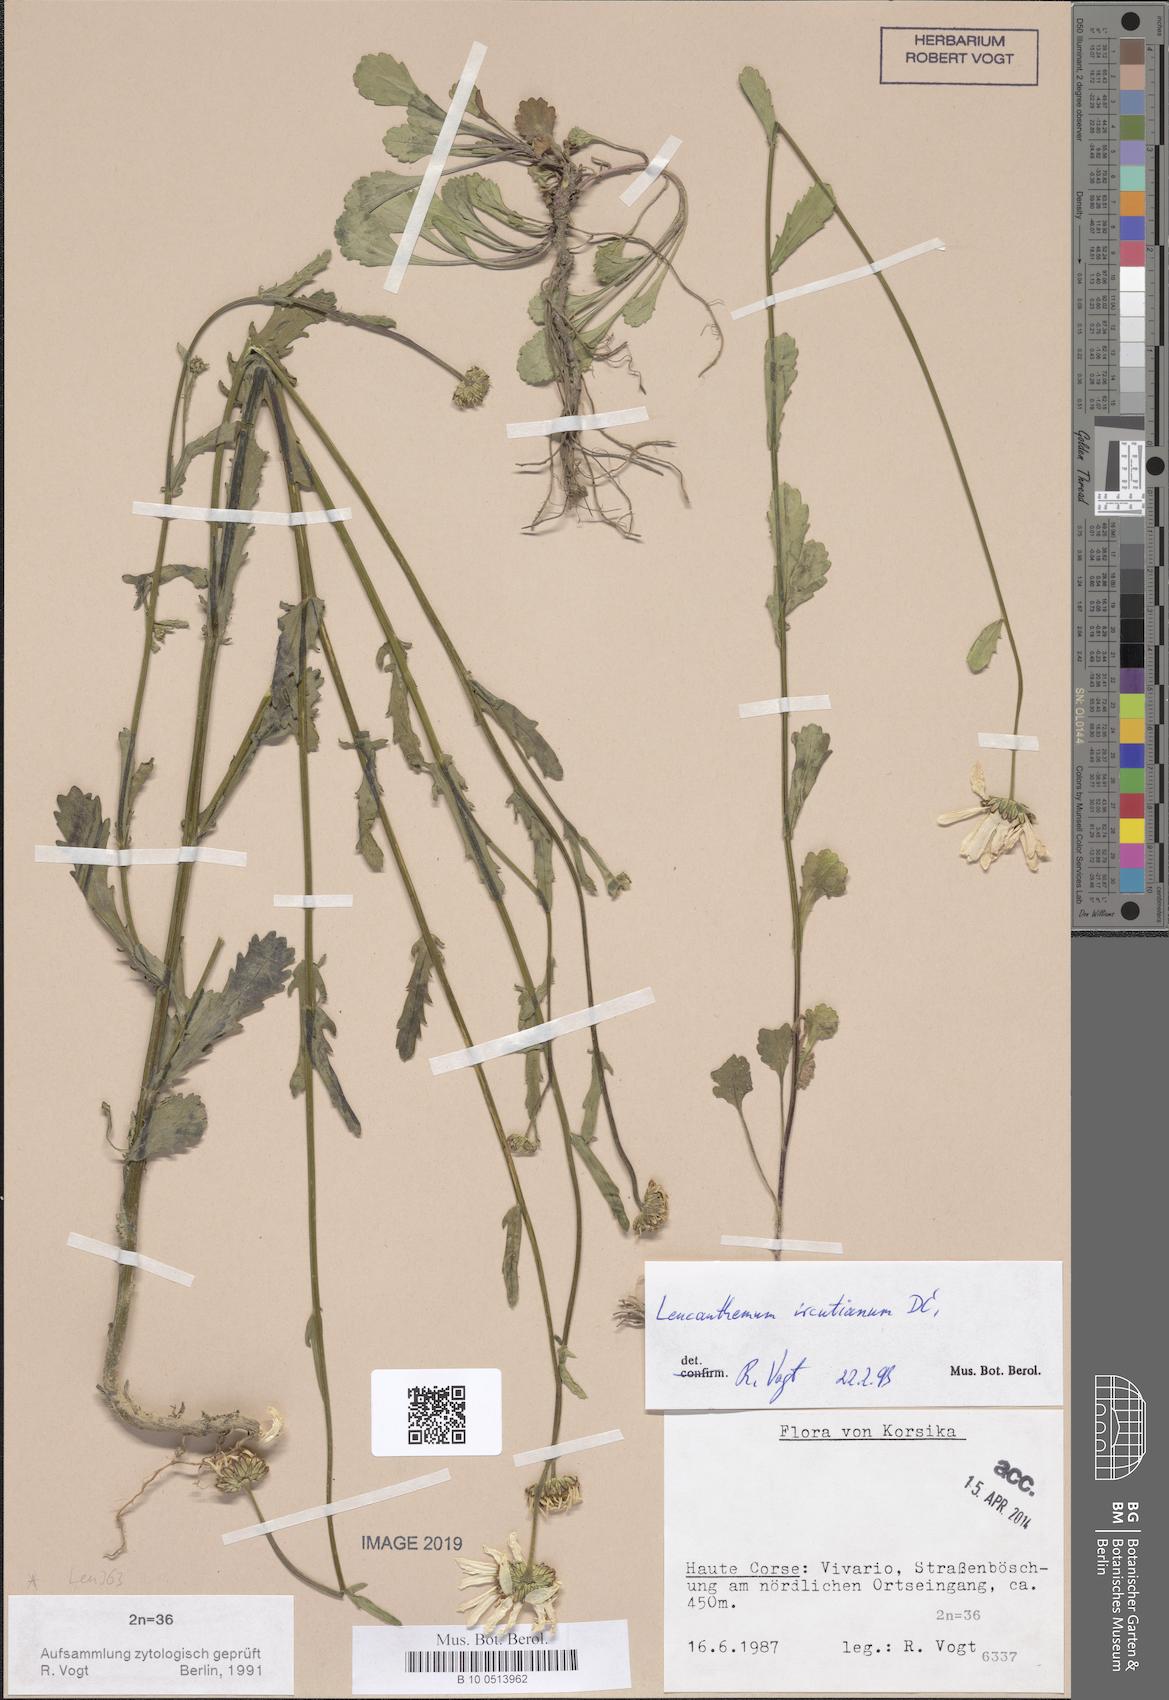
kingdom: Plantae
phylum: Tracheophyta
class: Magnoliopsida
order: Asterales
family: Asteraceae
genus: Leucanthemum
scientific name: Leucanthemum ircutianum
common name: Daisy
